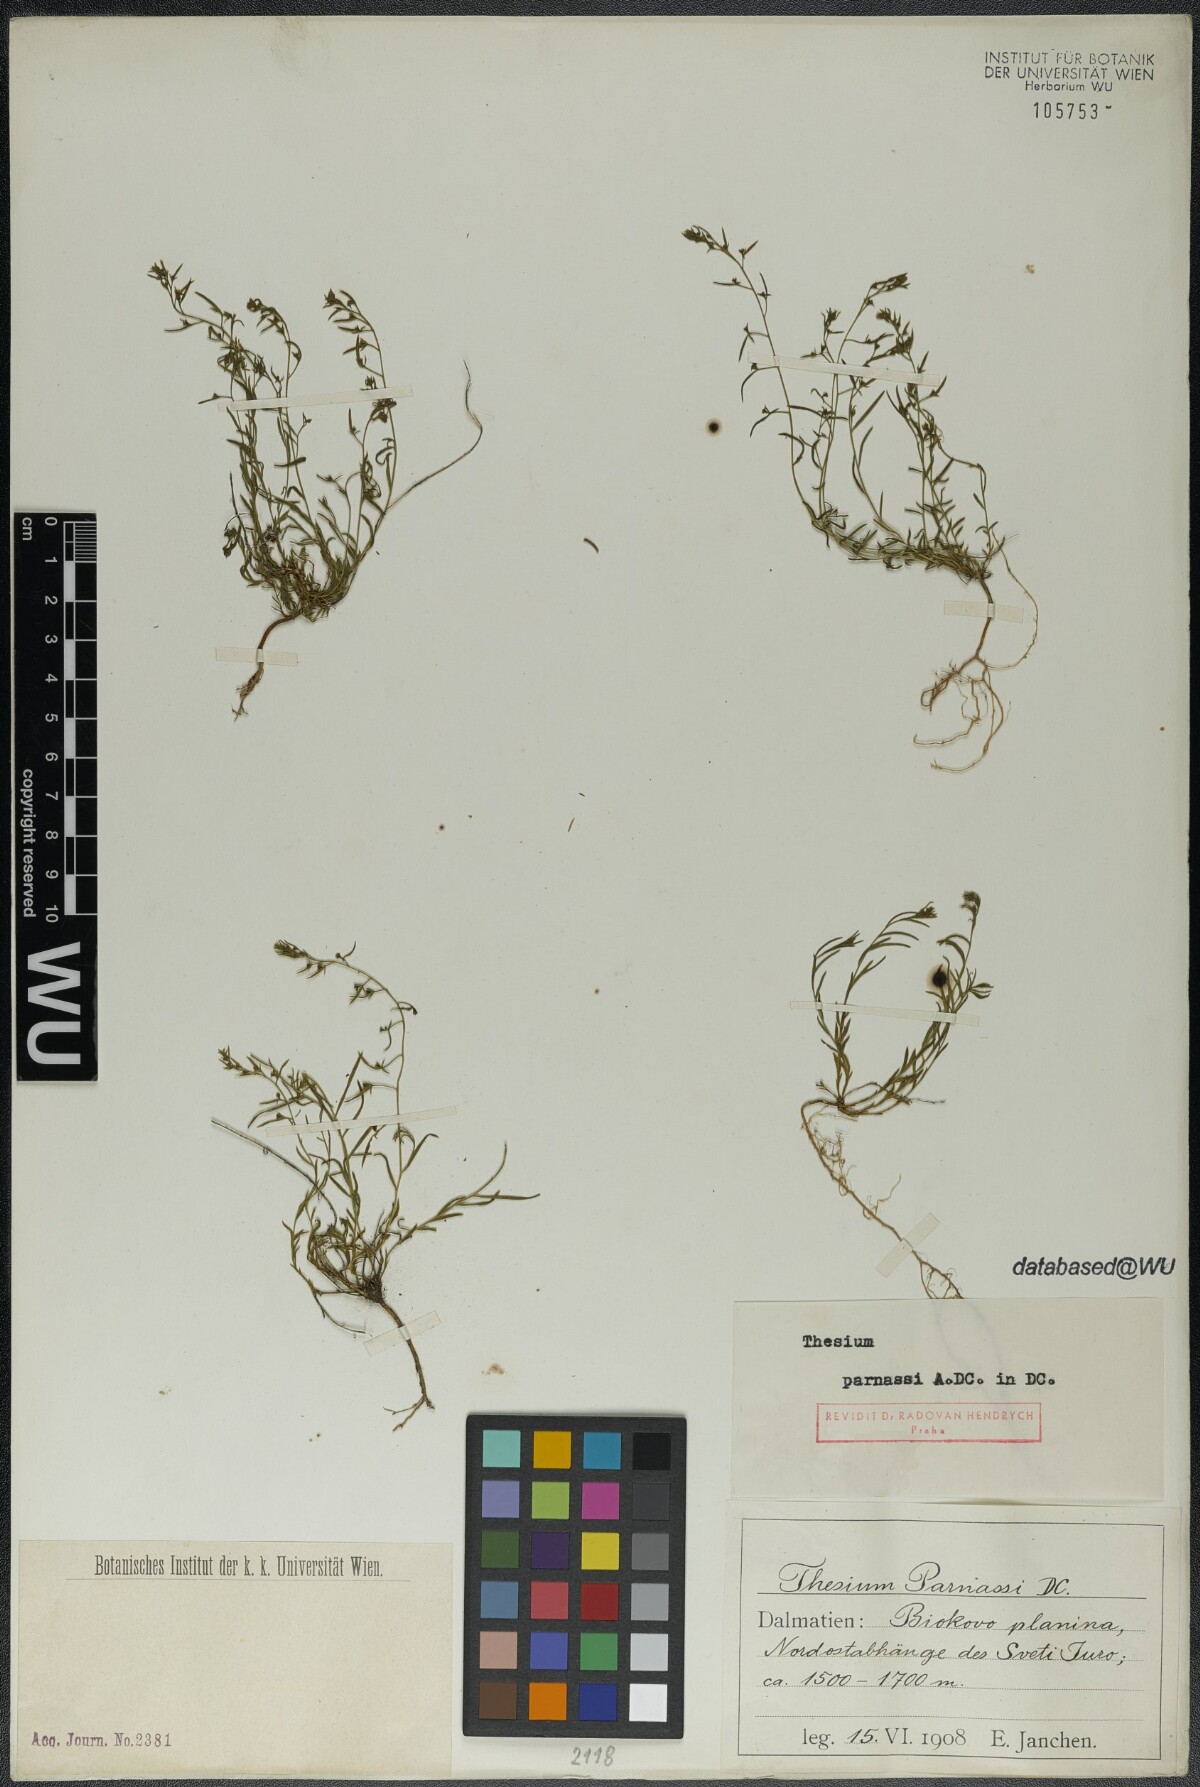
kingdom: Plantae
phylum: Tracheophyta
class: Magnoliopsida
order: Santalales
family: Thesiaceae
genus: Thesium
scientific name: Thesium parnassi
